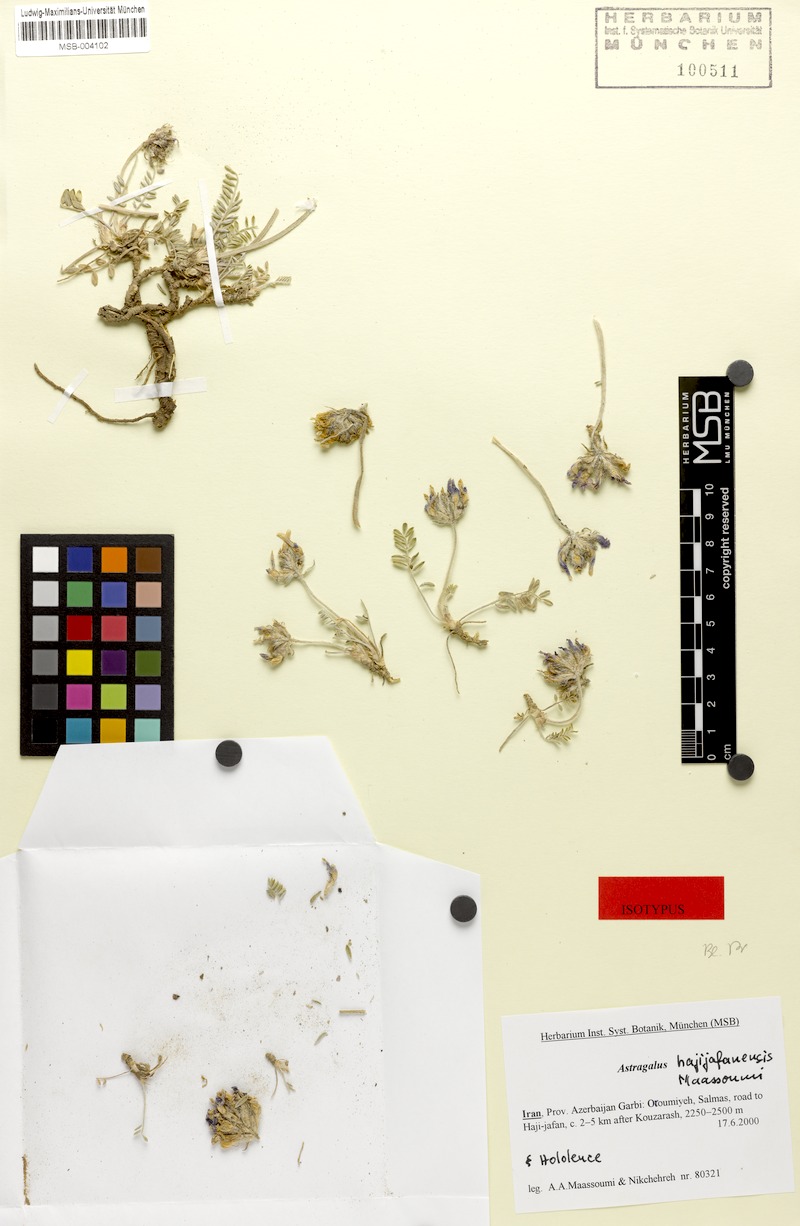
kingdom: Plantae
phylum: Tracheophyta
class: Magnoliopsida
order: Fabales
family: Fabaceae
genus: Astragalus
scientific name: Astragalus hajijafanensis
